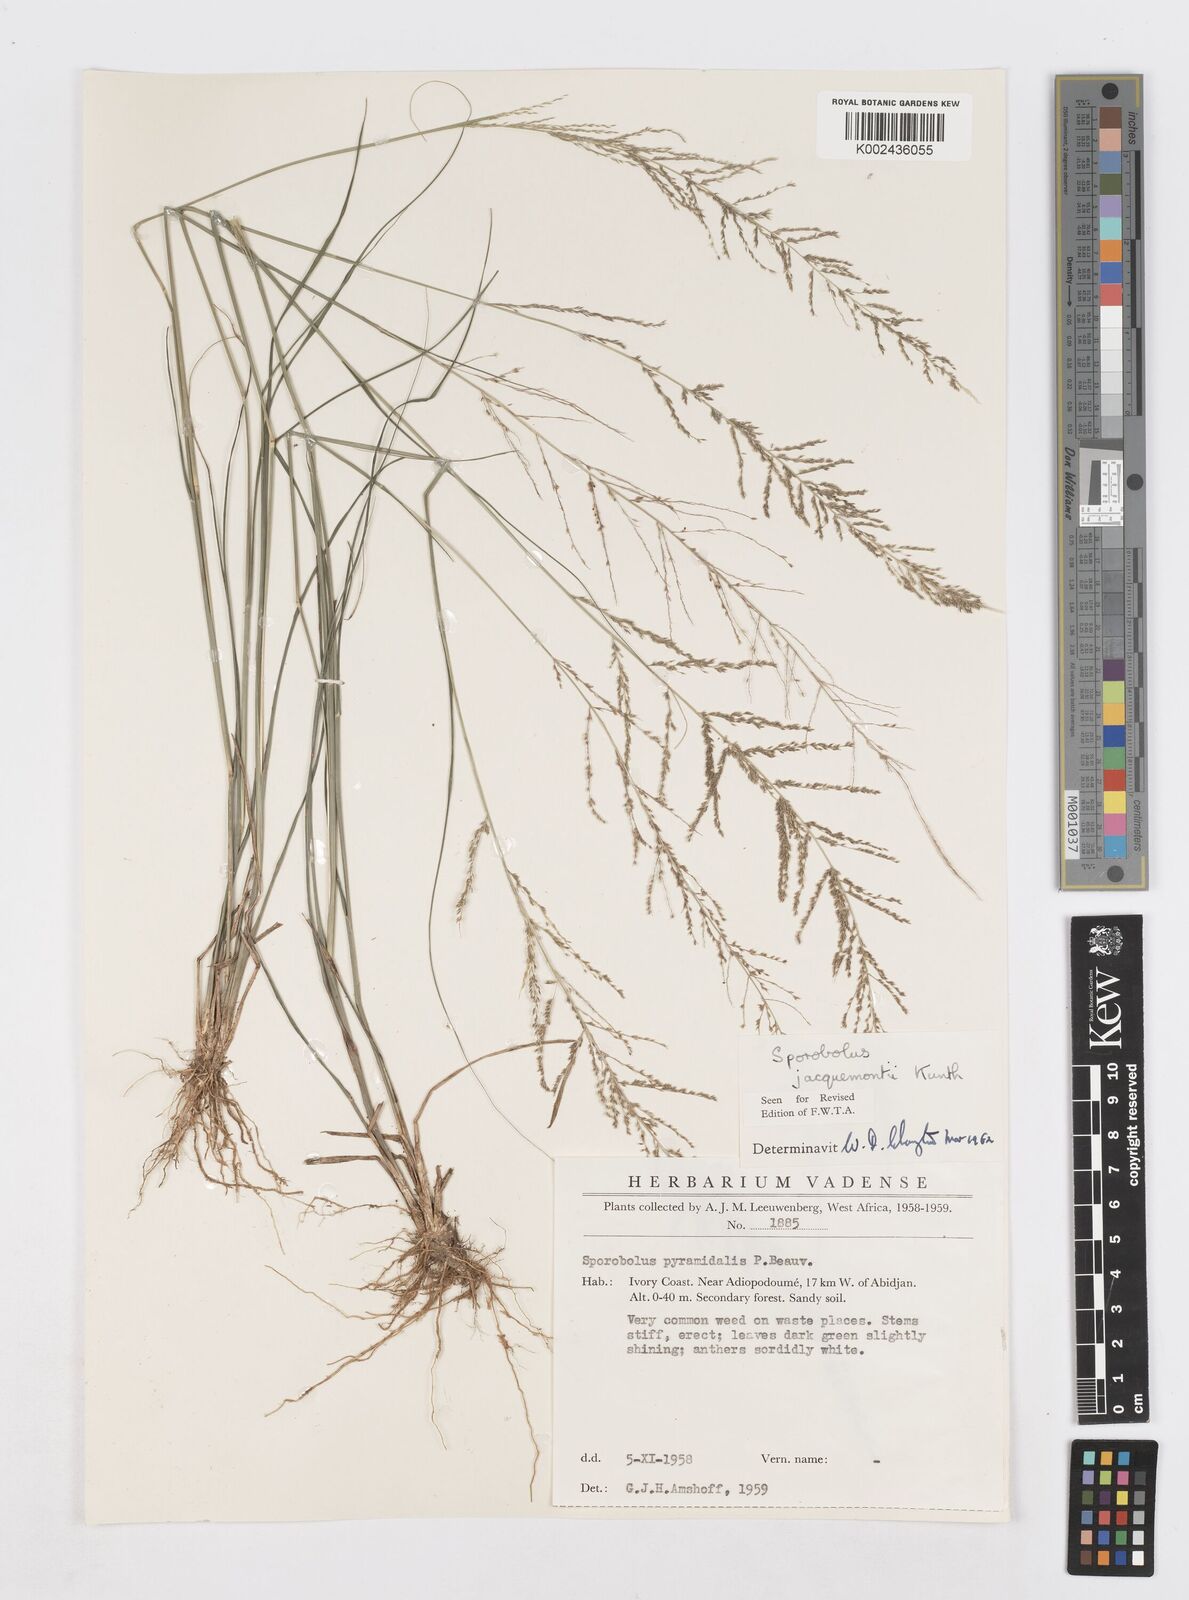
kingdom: Plantae
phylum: Tracheophyta
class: Liliopsida
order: Poales
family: Poaceae
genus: Sporobolus
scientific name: Sporobolus pyramidalis
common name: West indian dropseed
